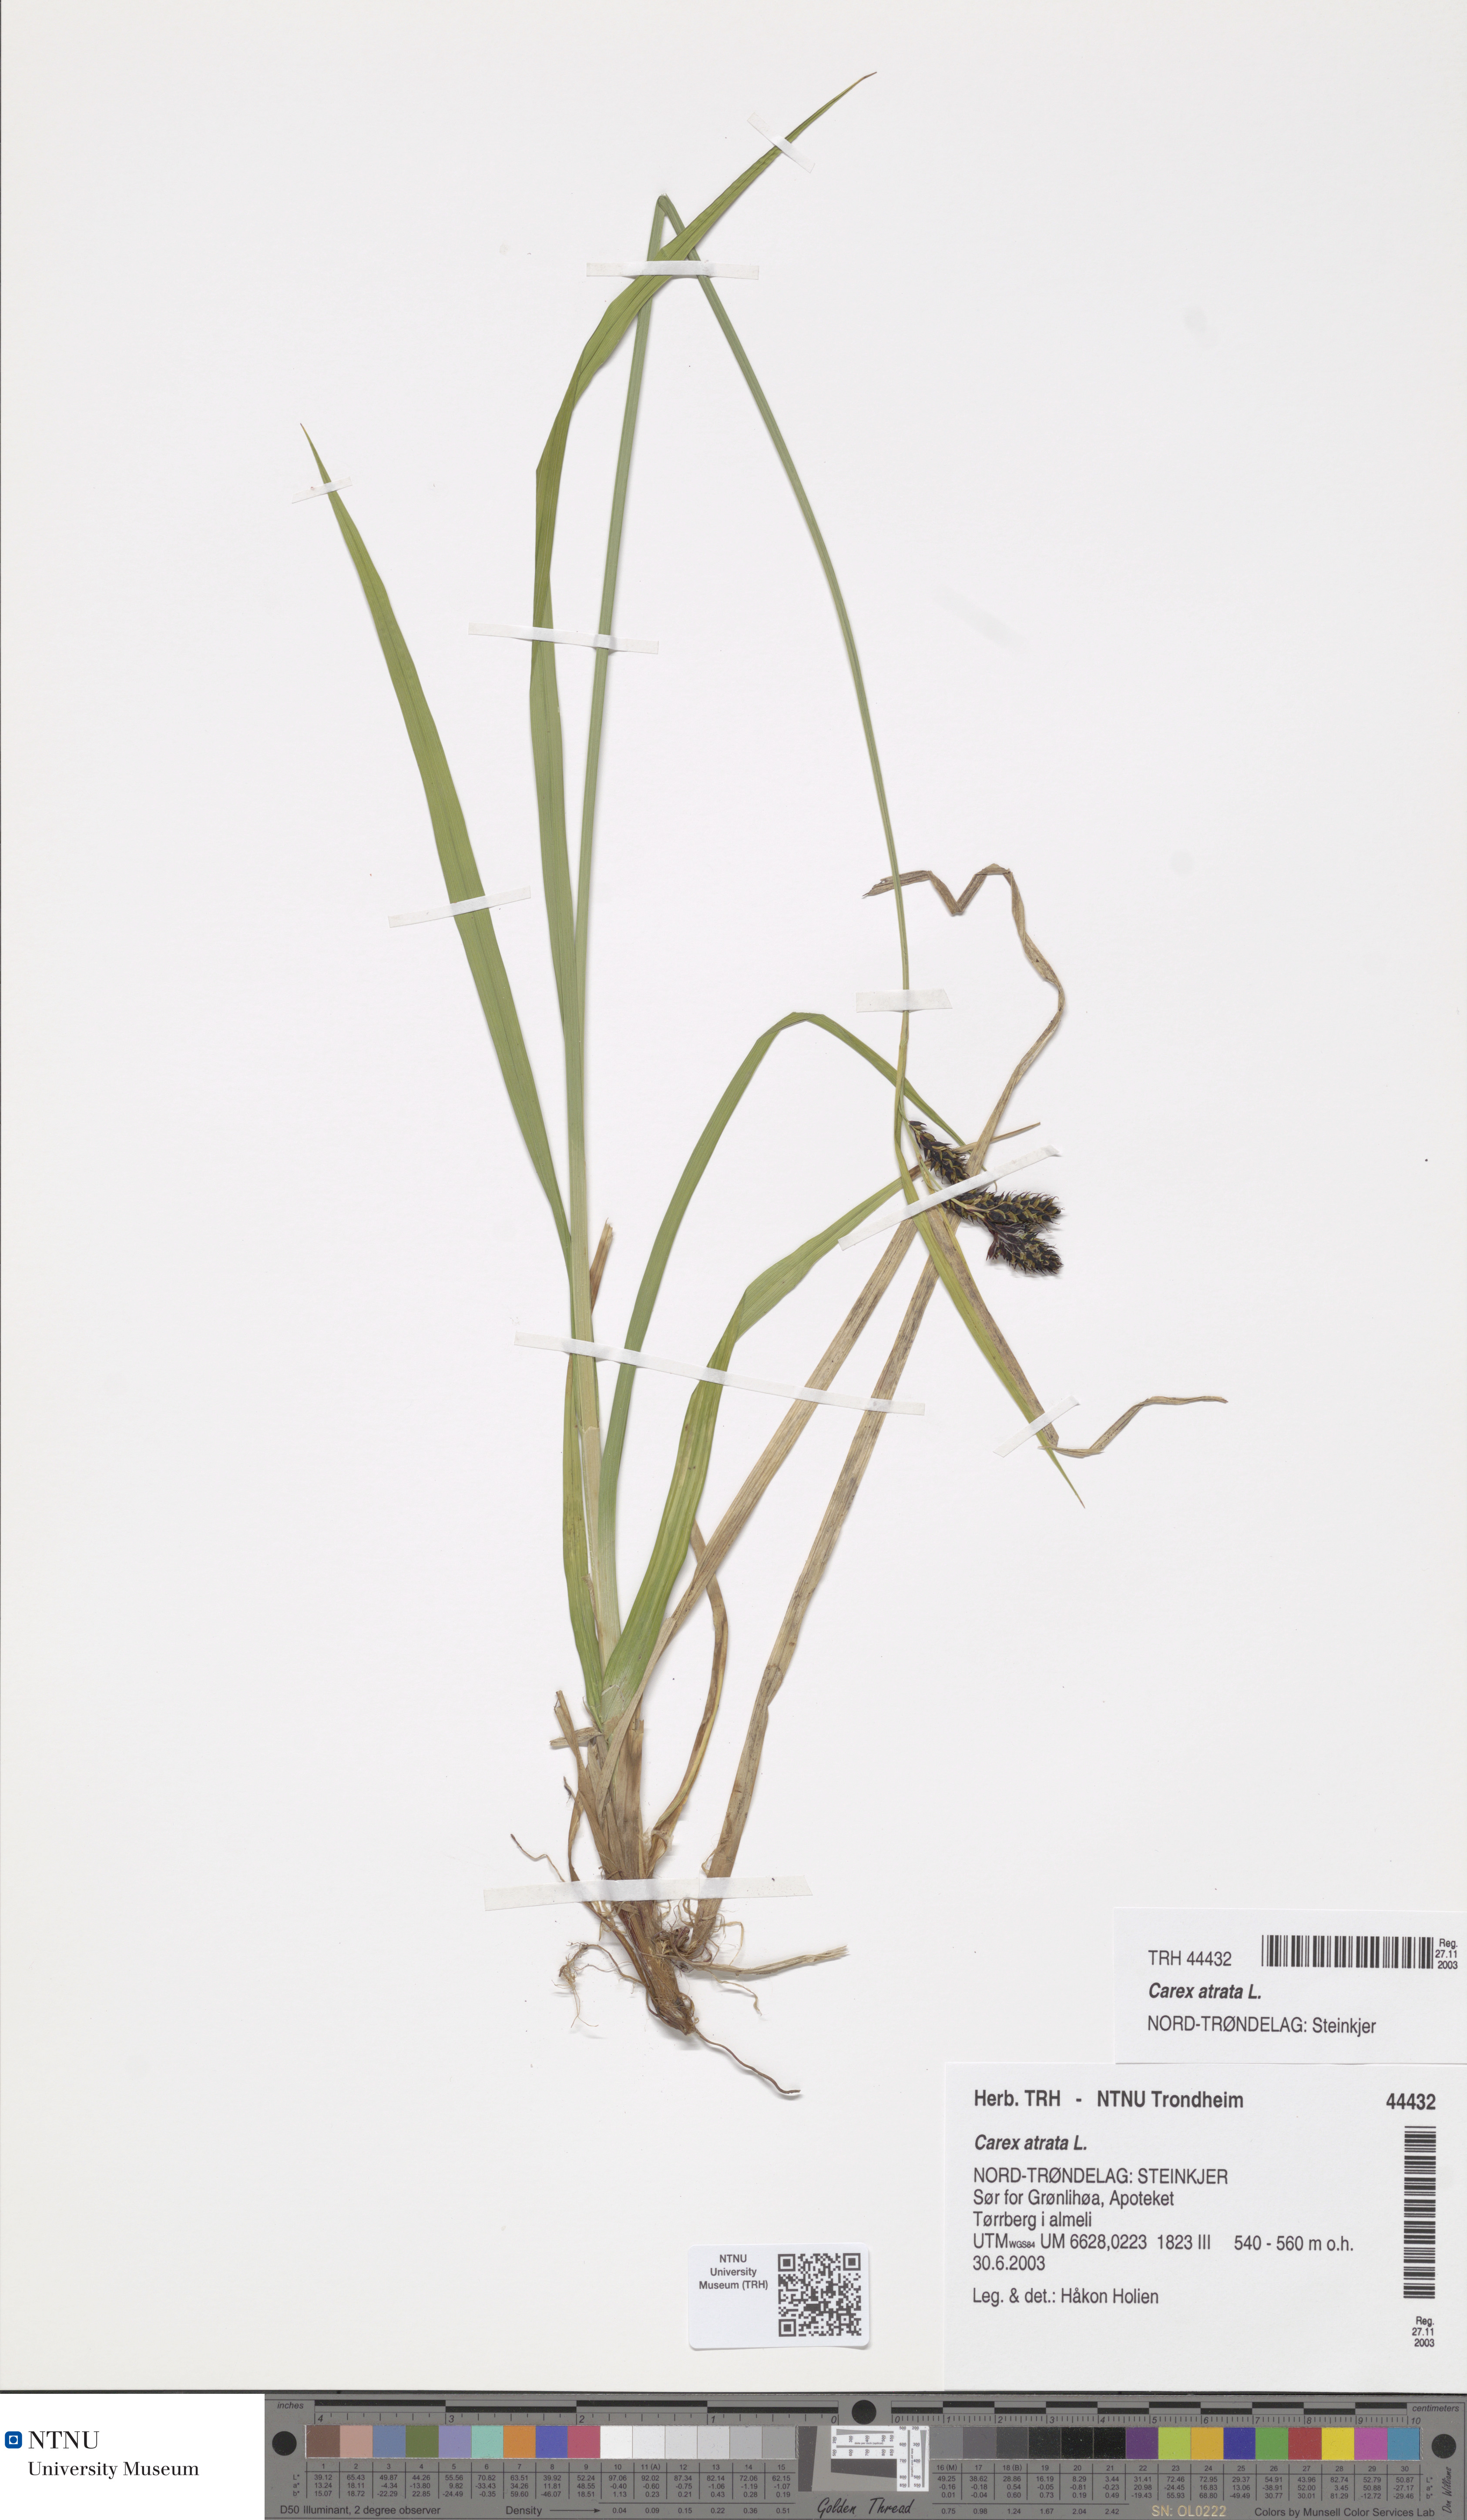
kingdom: Plantae
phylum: Tracheophyta
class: Liliopsida
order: Poales
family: Cyperaceae
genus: Carex
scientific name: Carex atrata
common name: Black alpine sedge
